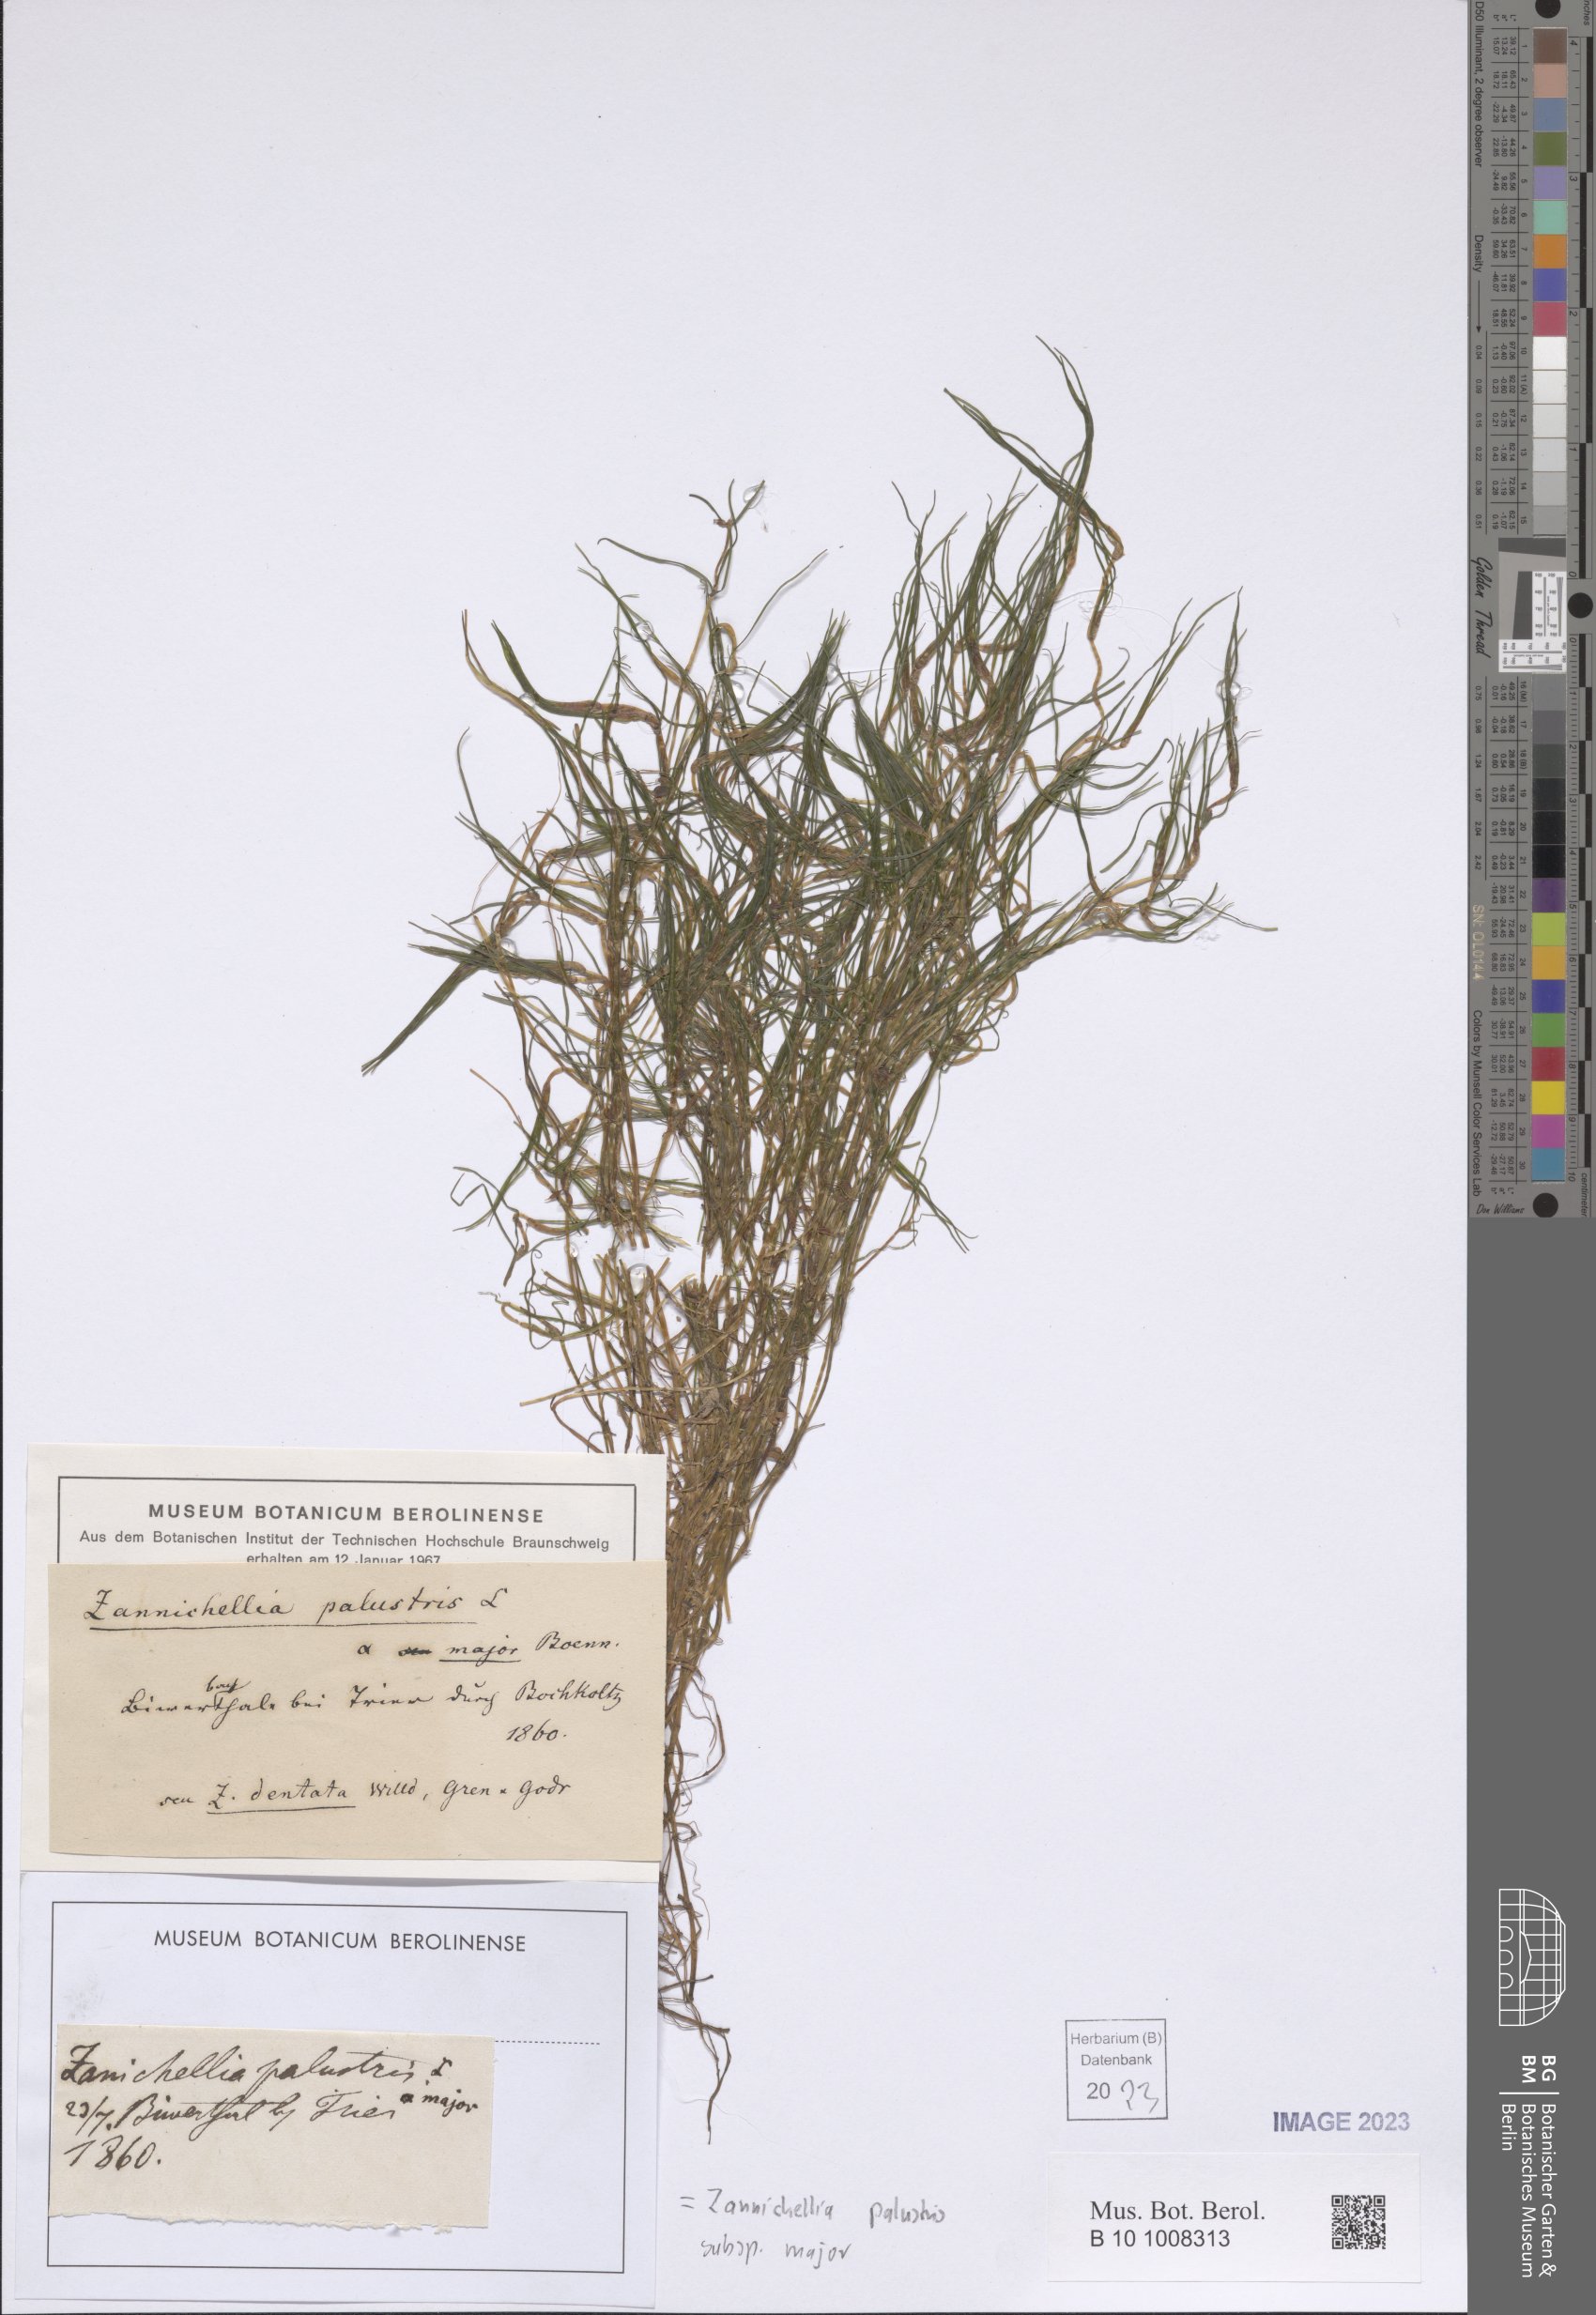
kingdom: Plantae
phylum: Tracheophyta
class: Liliopsida
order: Alismatales
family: Potamogetonaceae
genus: Zannichellia
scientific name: Zannichellia palustris
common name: Horned pondweed
